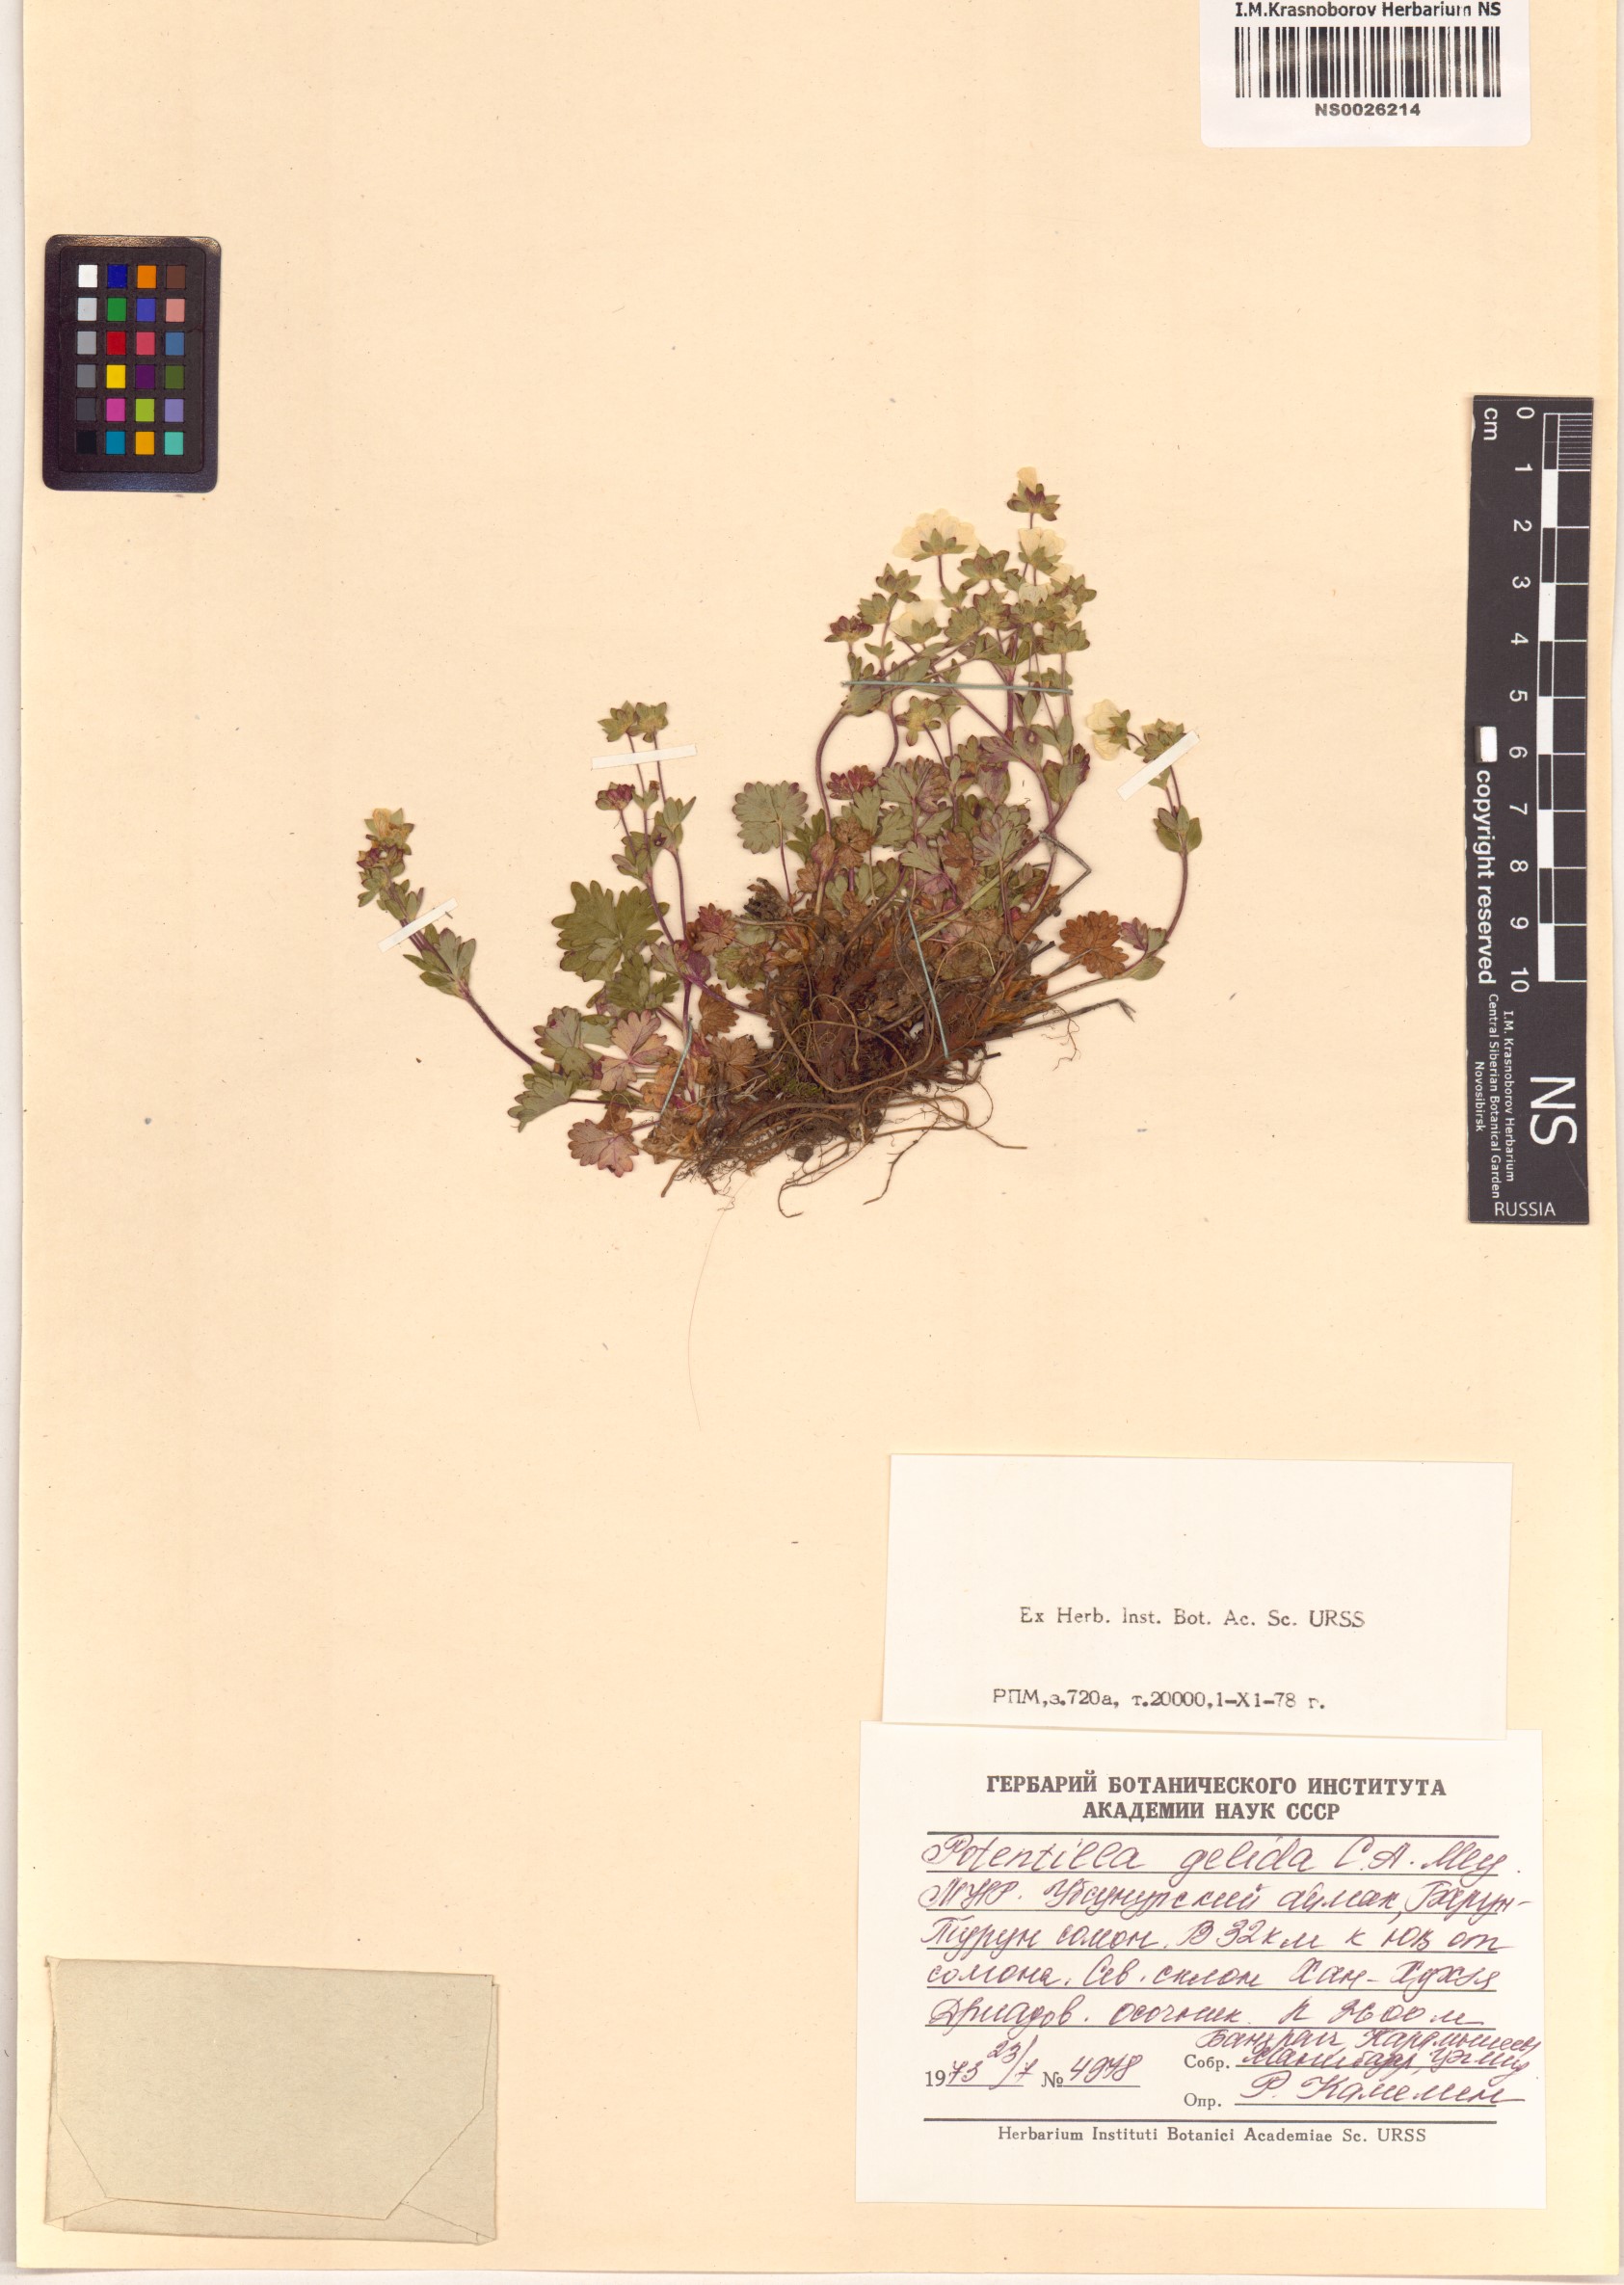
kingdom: Plantae
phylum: Tracheophyta
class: Magnoliopsida
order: Rosales
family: Rosaceae
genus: Potentilla
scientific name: Potentilla crantzii
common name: Alpine cinquefoil
